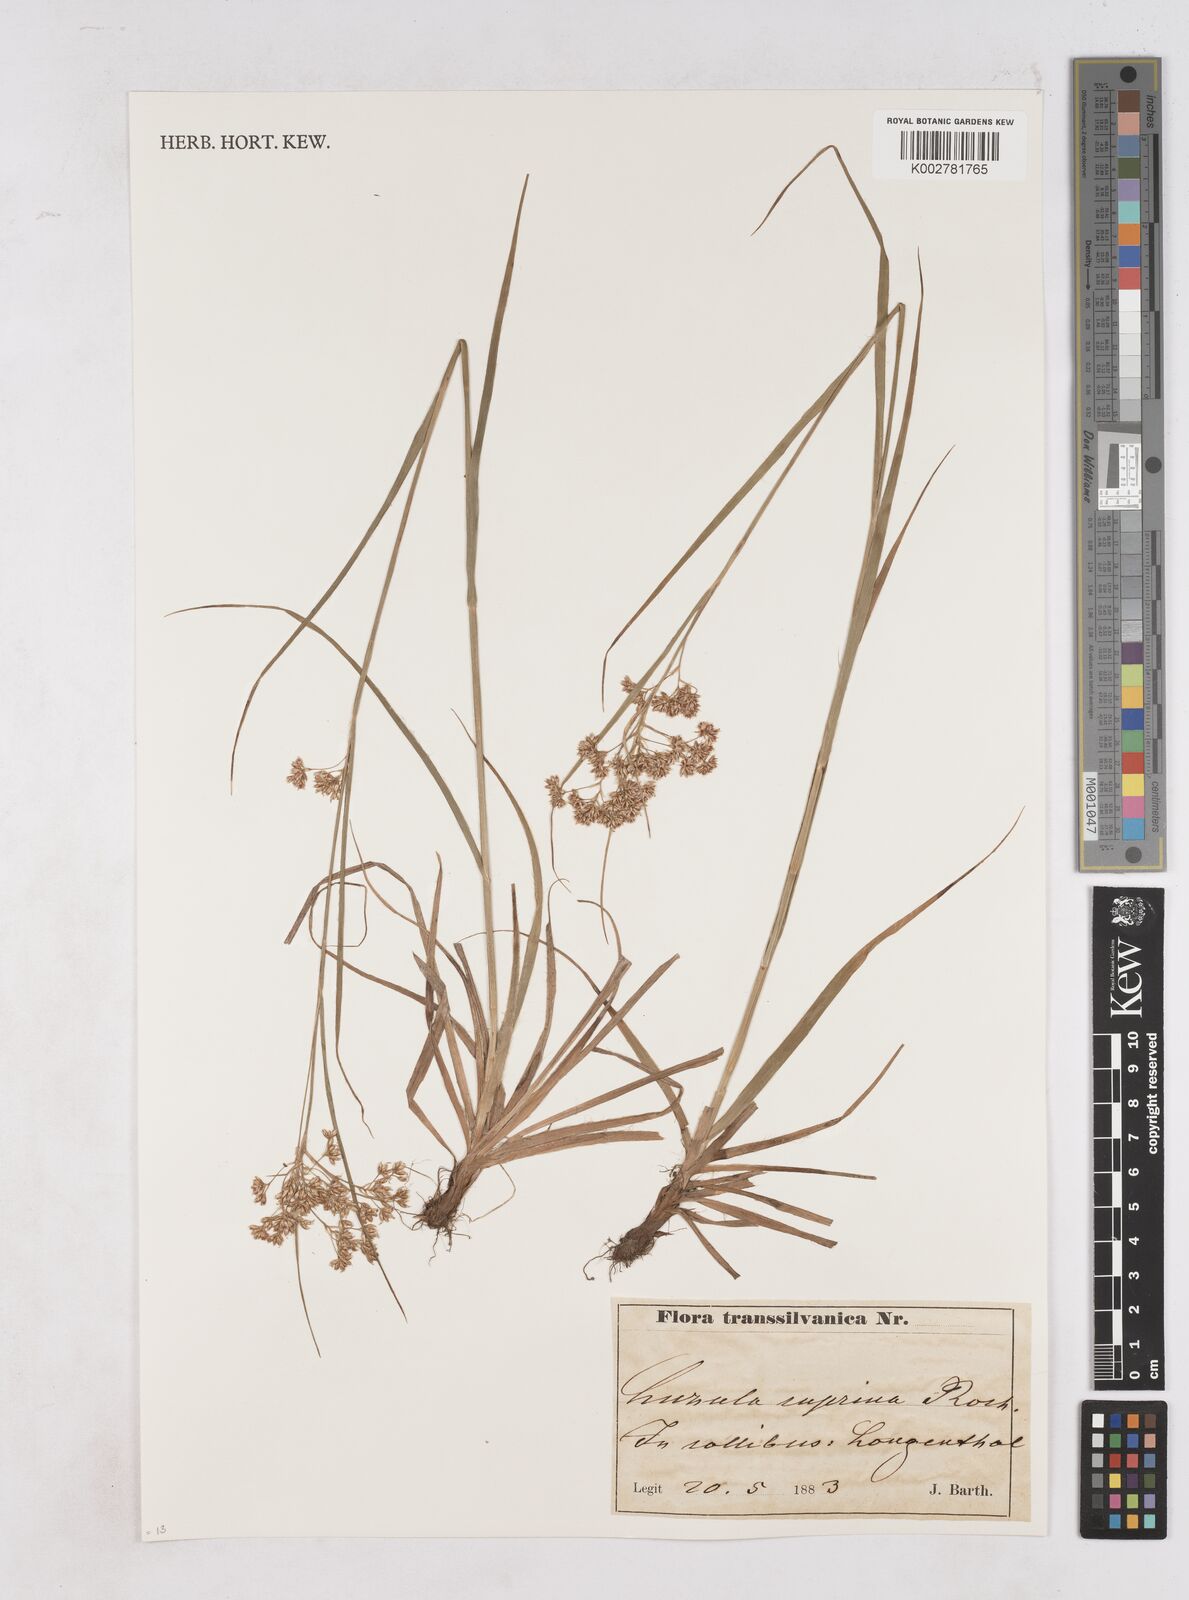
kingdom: Plantae
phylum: Tracheophyta
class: Liliopsida
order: Poales
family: Juncaceae
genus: Luzula
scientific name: Luzula luzuloides
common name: White wood-rush
